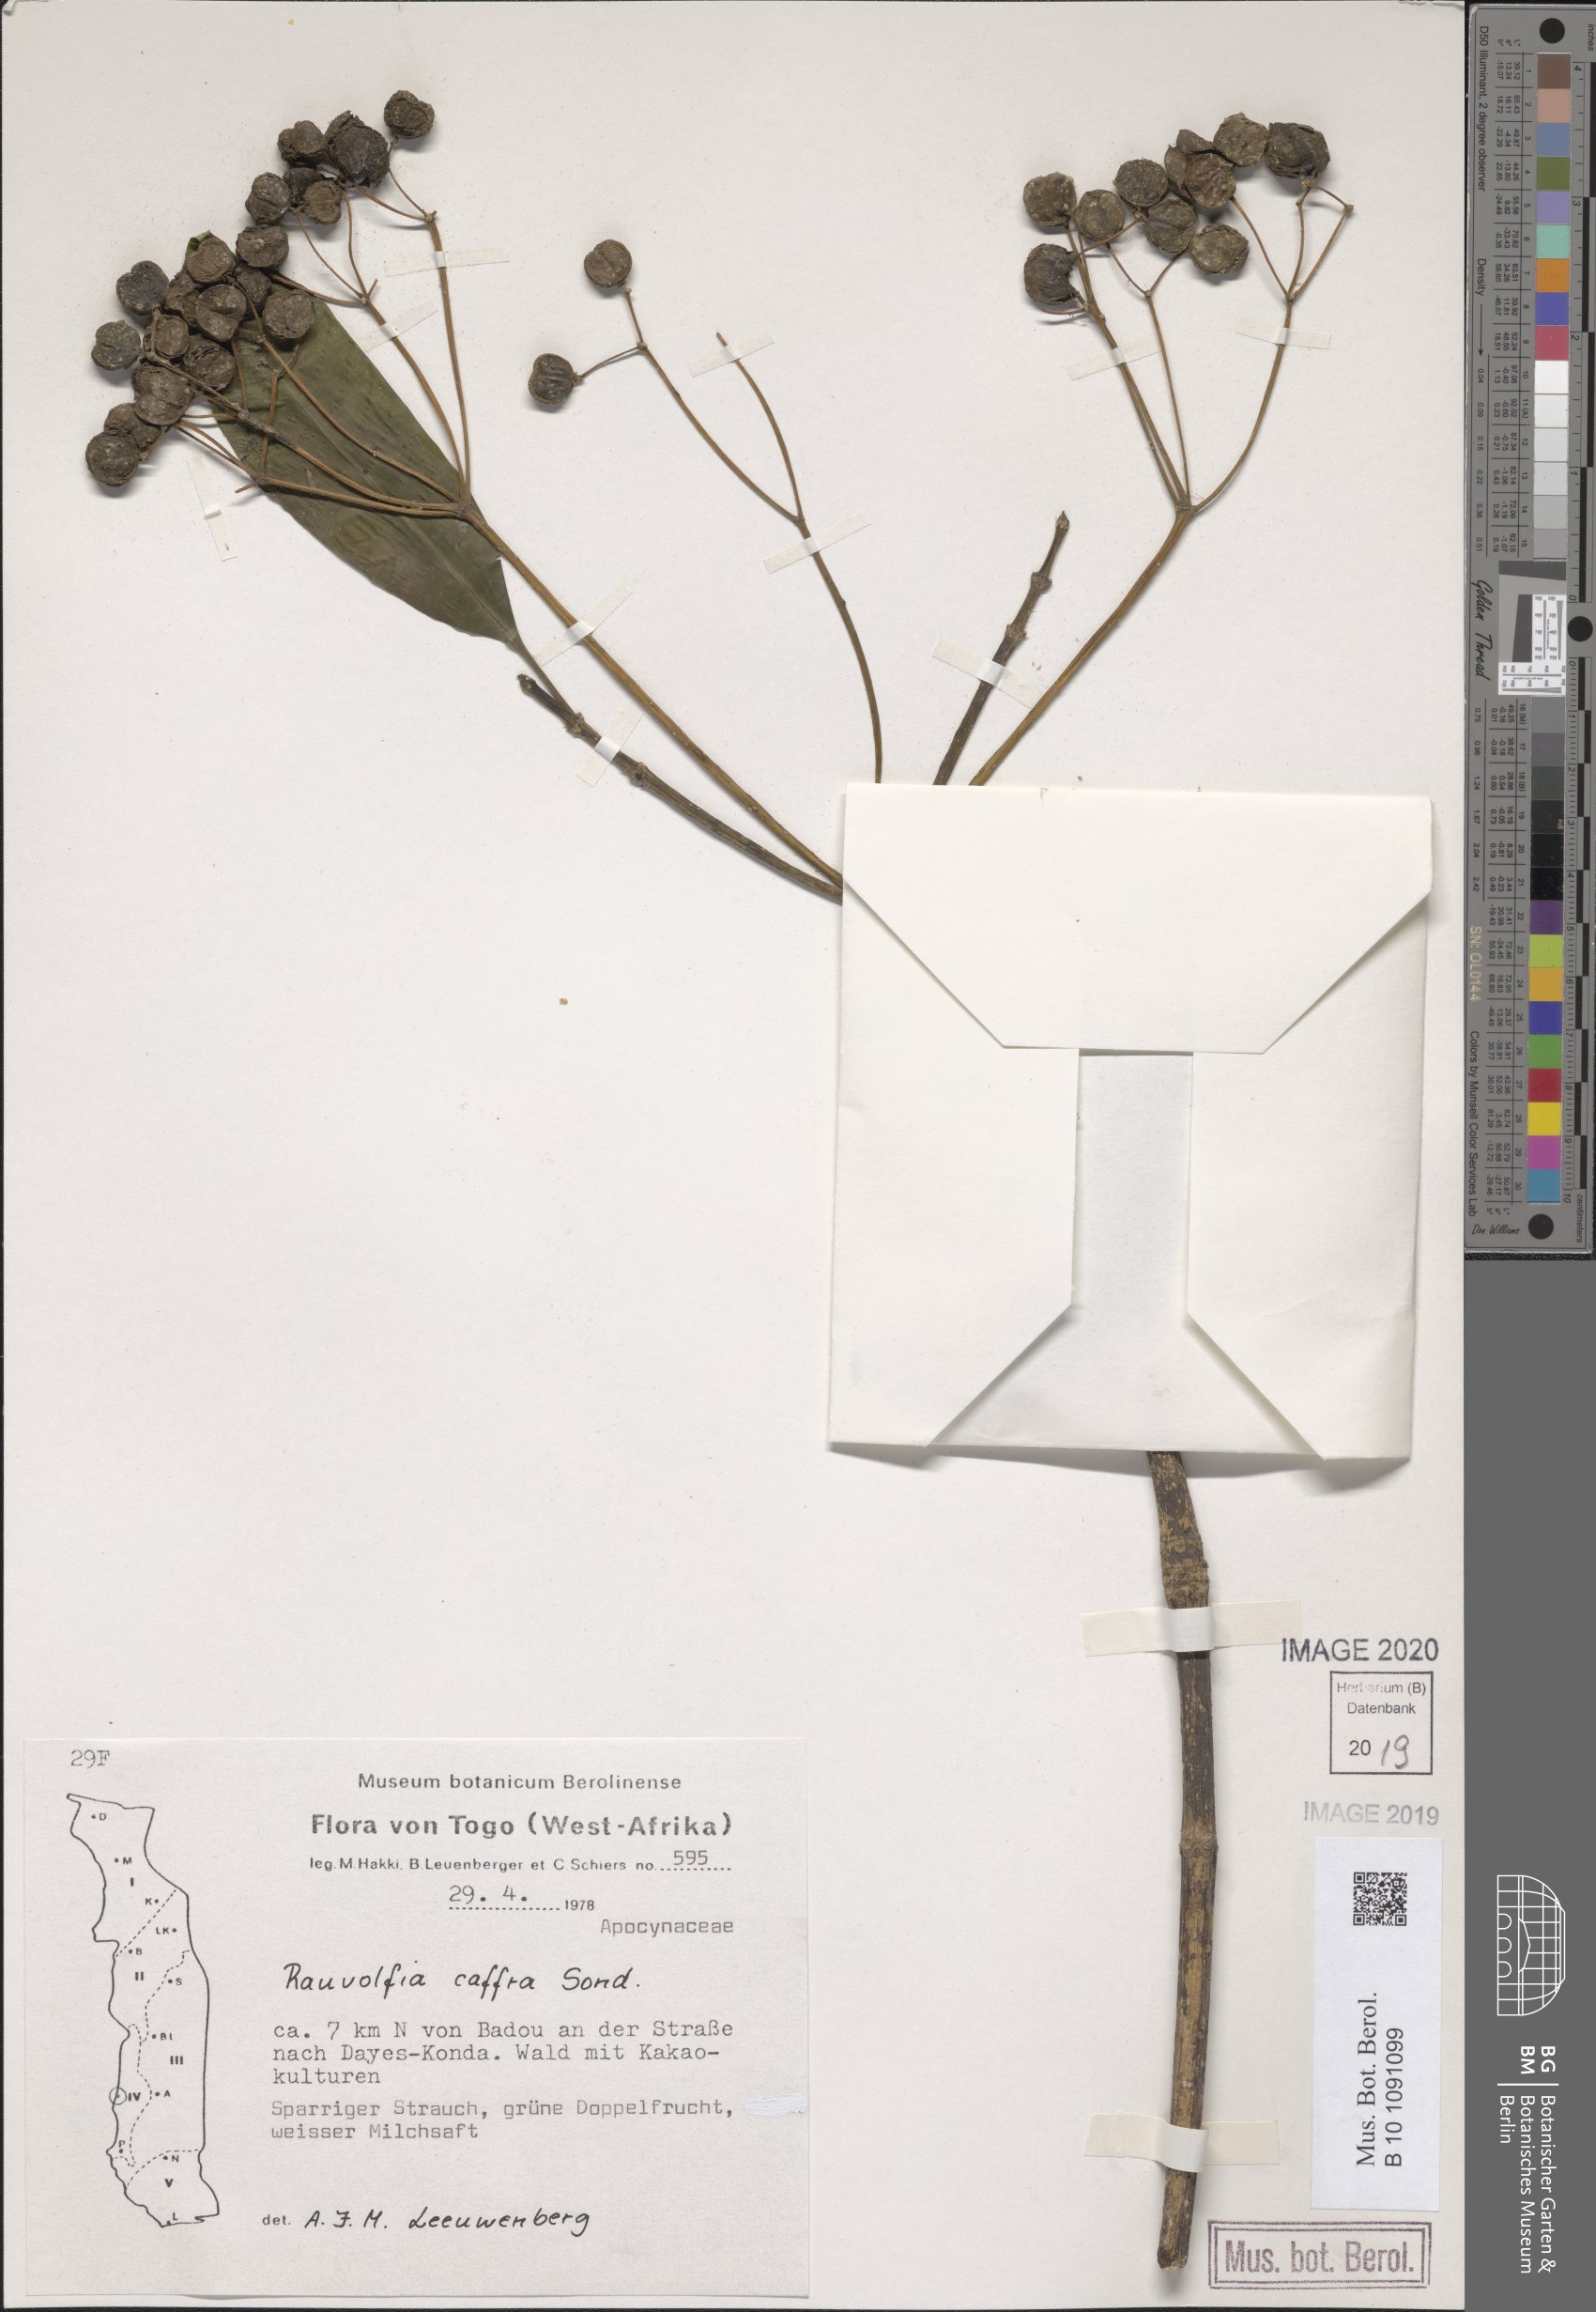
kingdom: Plantae
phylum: Tracheophyta
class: Magnoliopsida
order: Gentianales
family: Apocynaceae
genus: Rauvolfia
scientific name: Rauvolfia caffra
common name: Quininetree
